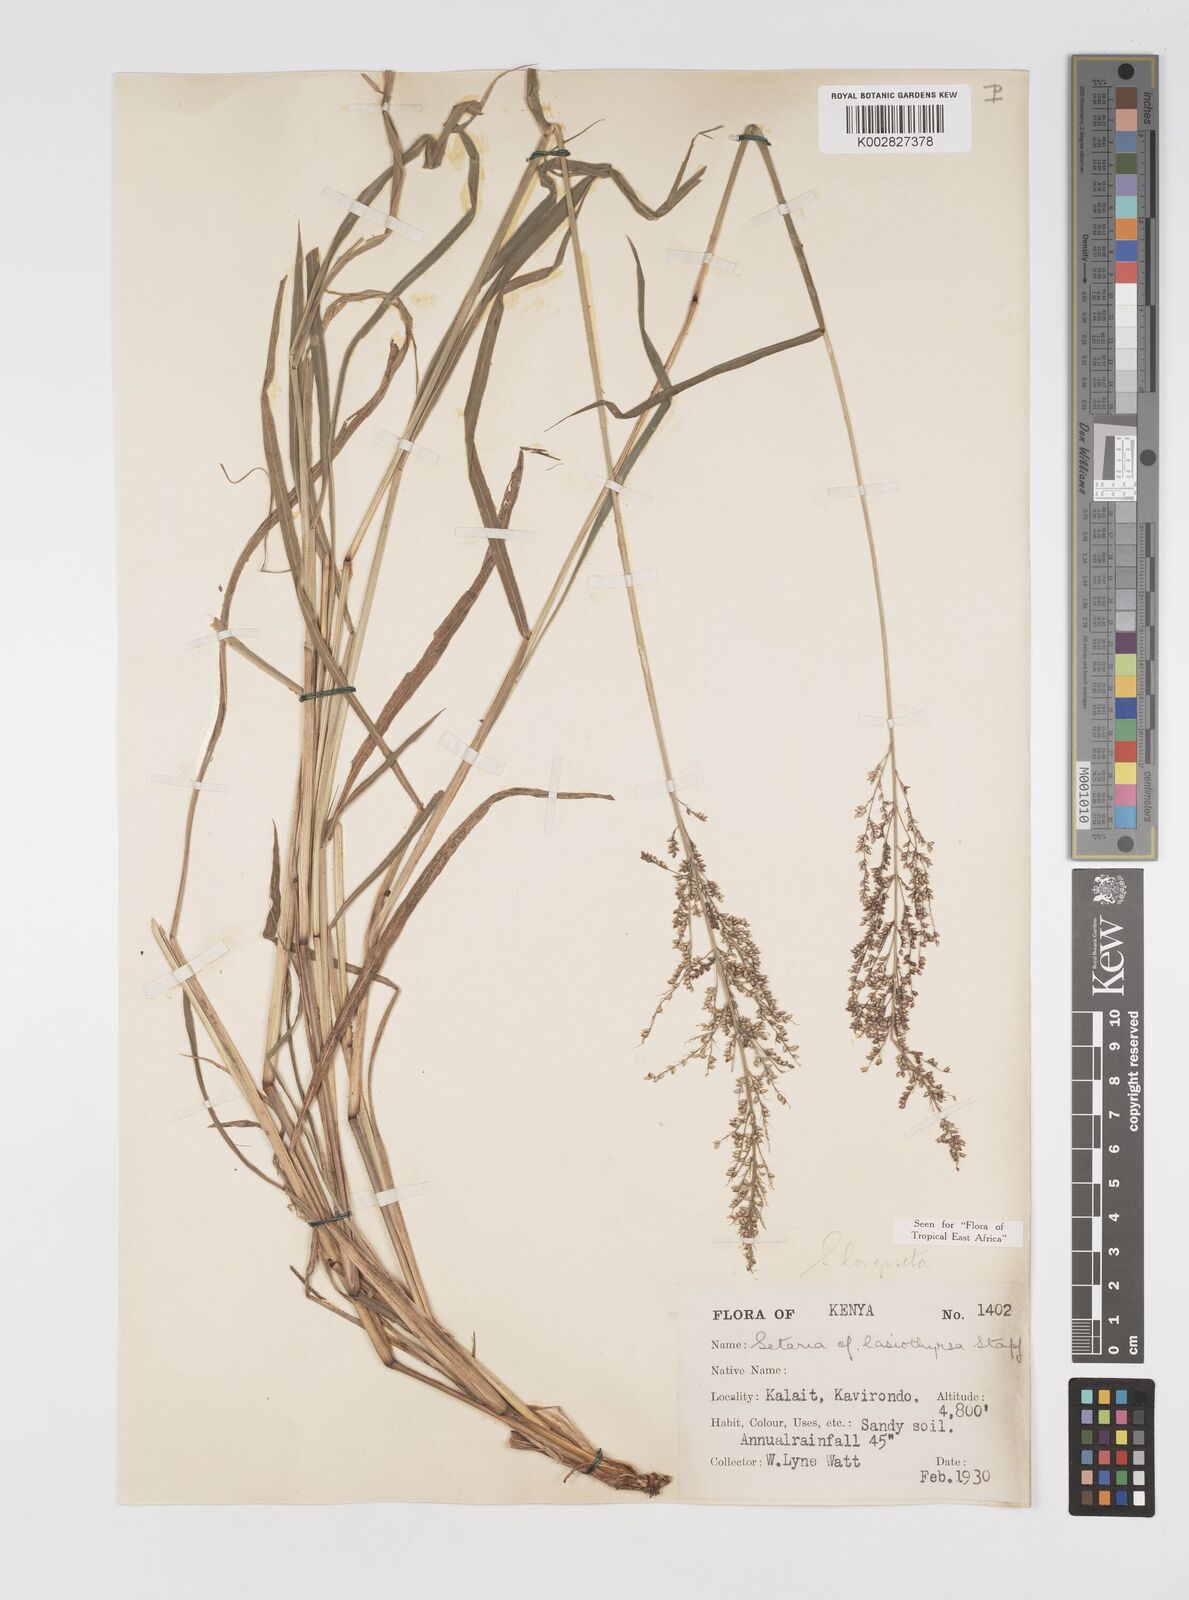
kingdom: Plantae
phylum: Tracheophyta
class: Liliopsida
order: Poales
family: Poaceae
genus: Setaria
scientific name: Setaria longiseta
